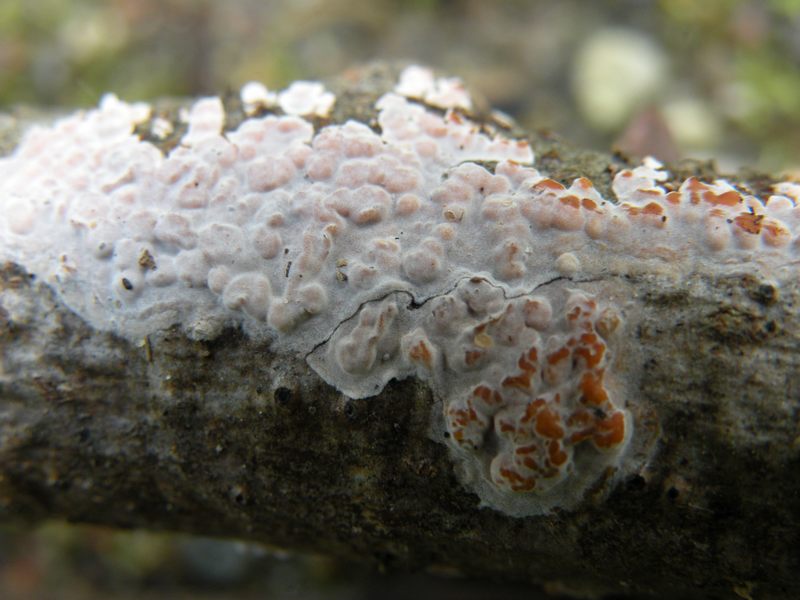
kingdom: Fungi
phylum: Basidiomycota
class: Agaricomycetes
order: Russulales
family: Peniophoraceae
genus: Peniophora
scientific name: Peniophora polygonia
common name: polygon-voksskind
